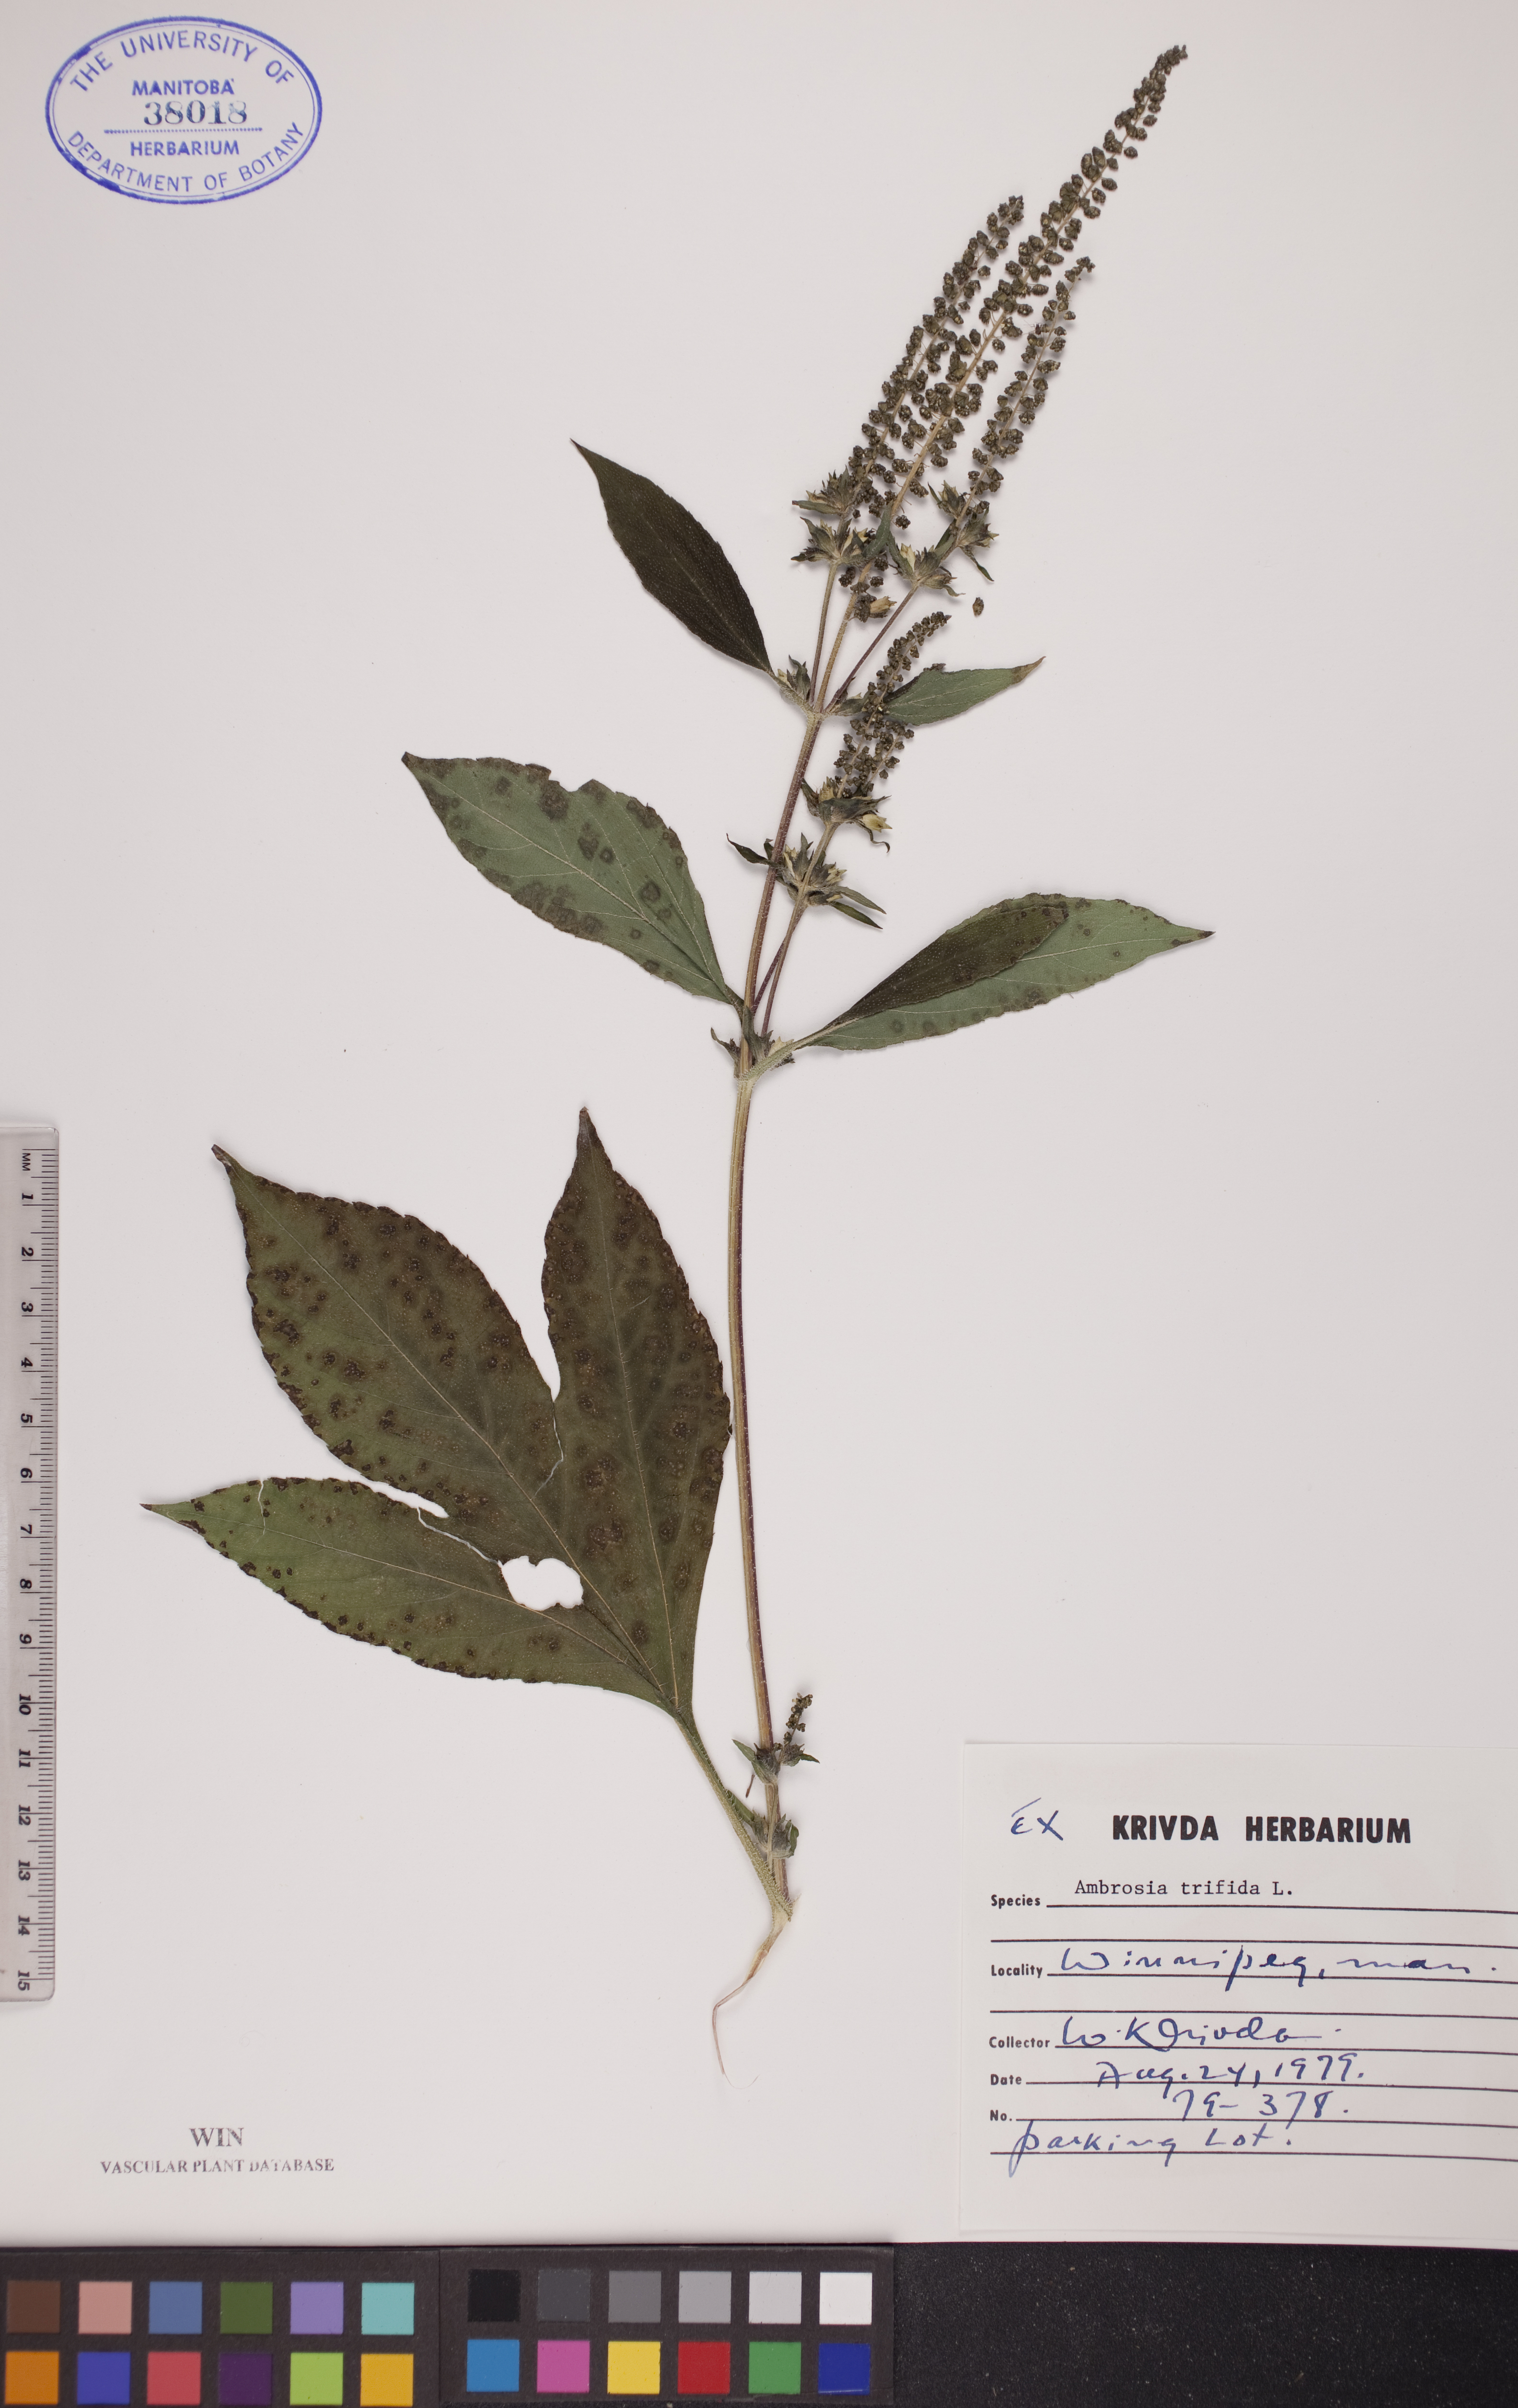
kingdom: Plantae
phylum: Tracheophyta
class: Magnoliopsida
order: Asterales
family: Asteraceae
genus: Ambrosia
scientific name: Ambrosia trifida
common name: Giant ragweed
